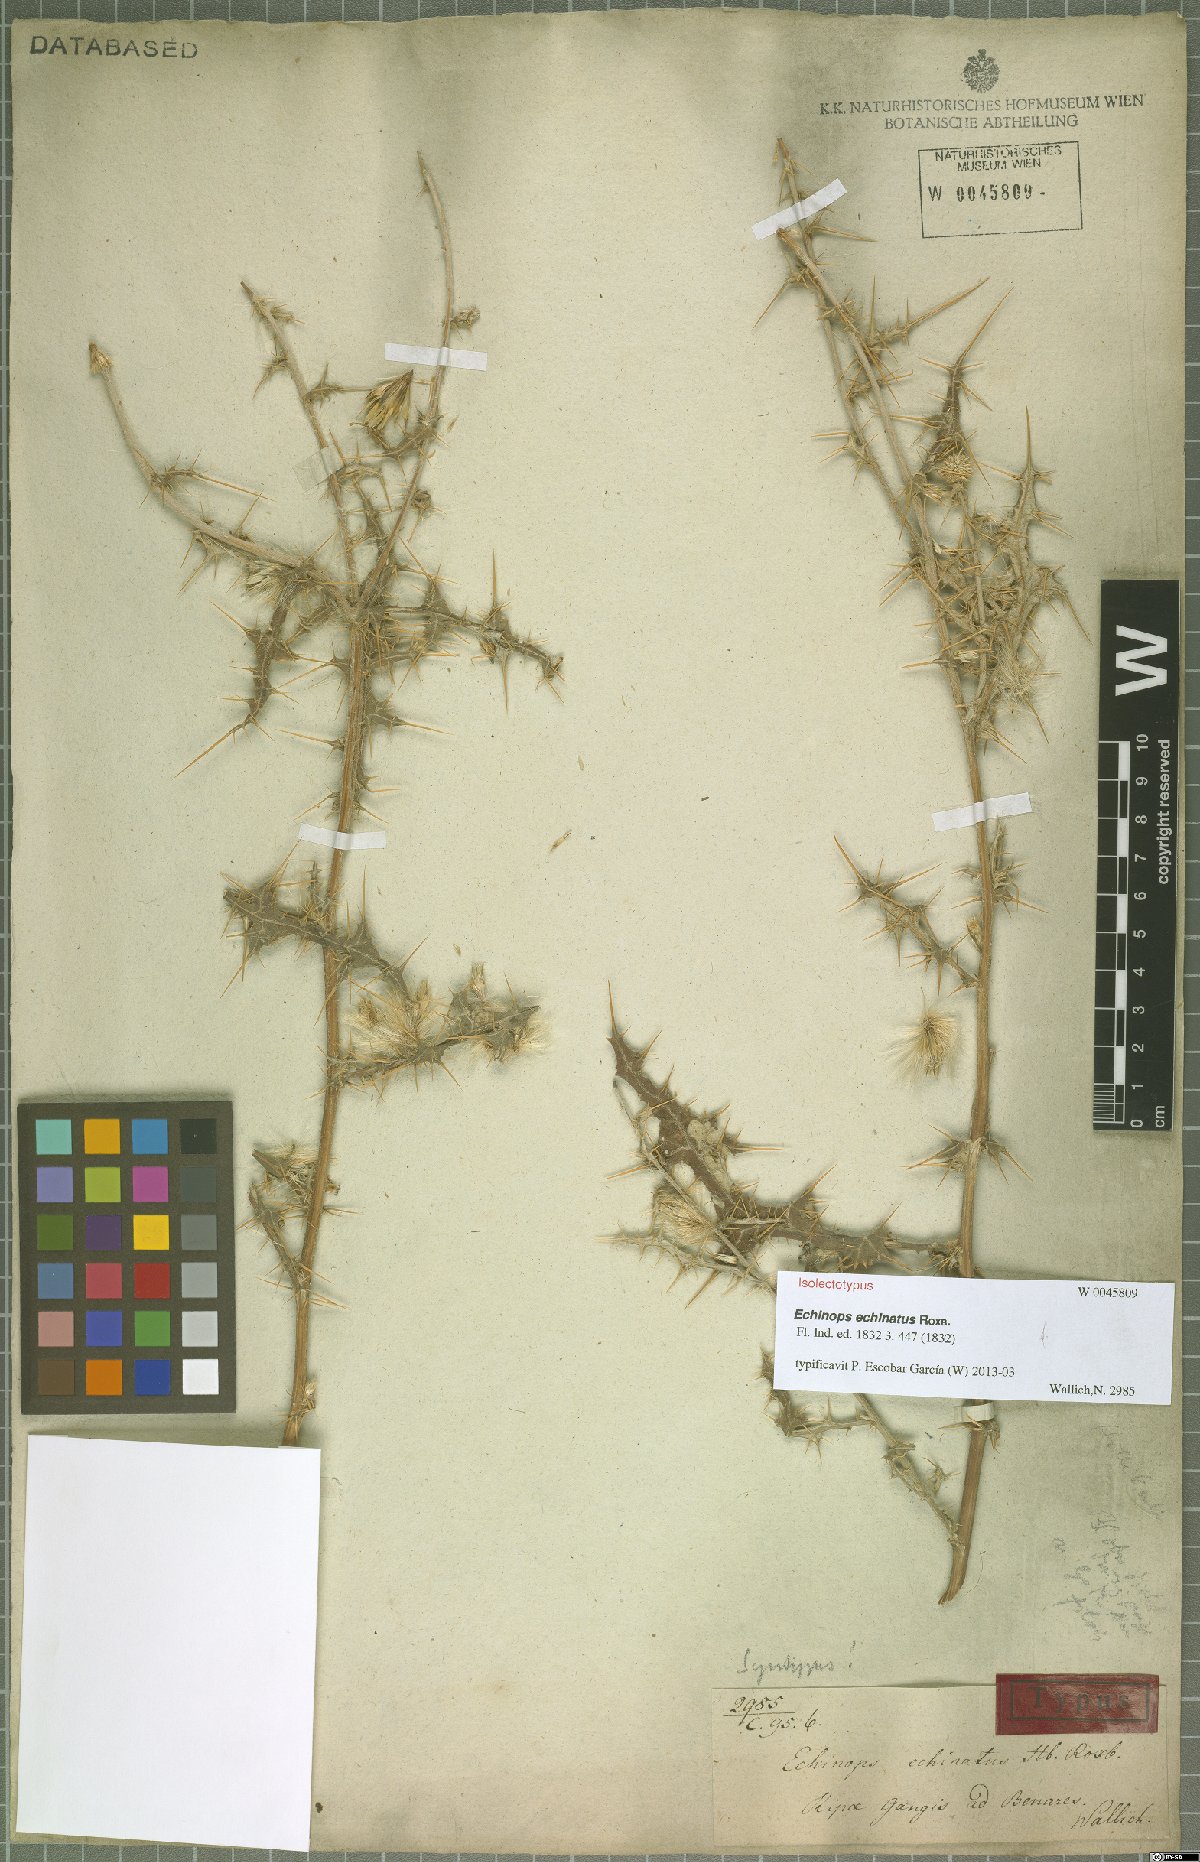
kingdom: Plantae
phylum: Tracheophyta
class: Magnoliopsida
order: Asterales
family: Asteraceae
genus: Echinops
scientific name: Echinops echinatus
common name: Indian globe thistle
